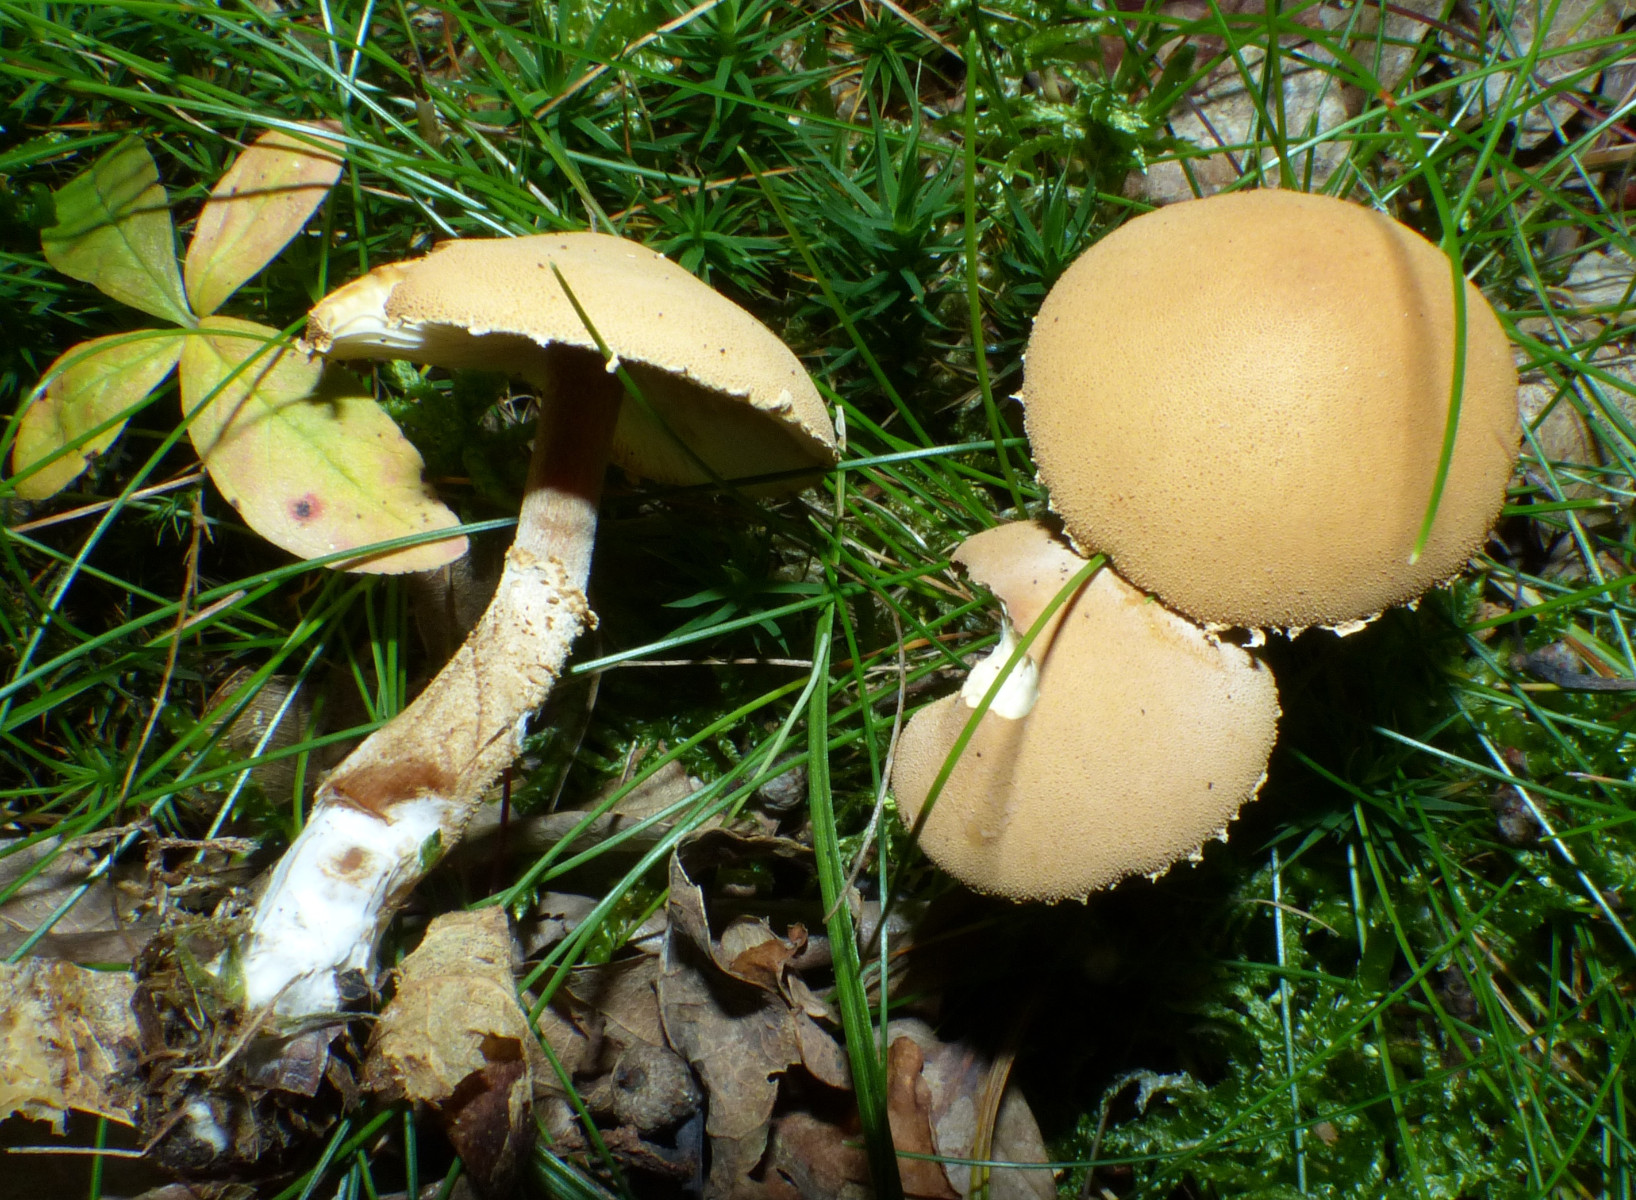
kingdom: Fungi
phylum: Basidiomycota
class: Agaricomycetes
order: Agaricales
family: Tricholomataceae
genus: Cystoderma
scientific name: Cystoderma amianthinum
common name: okkergul grynhat
